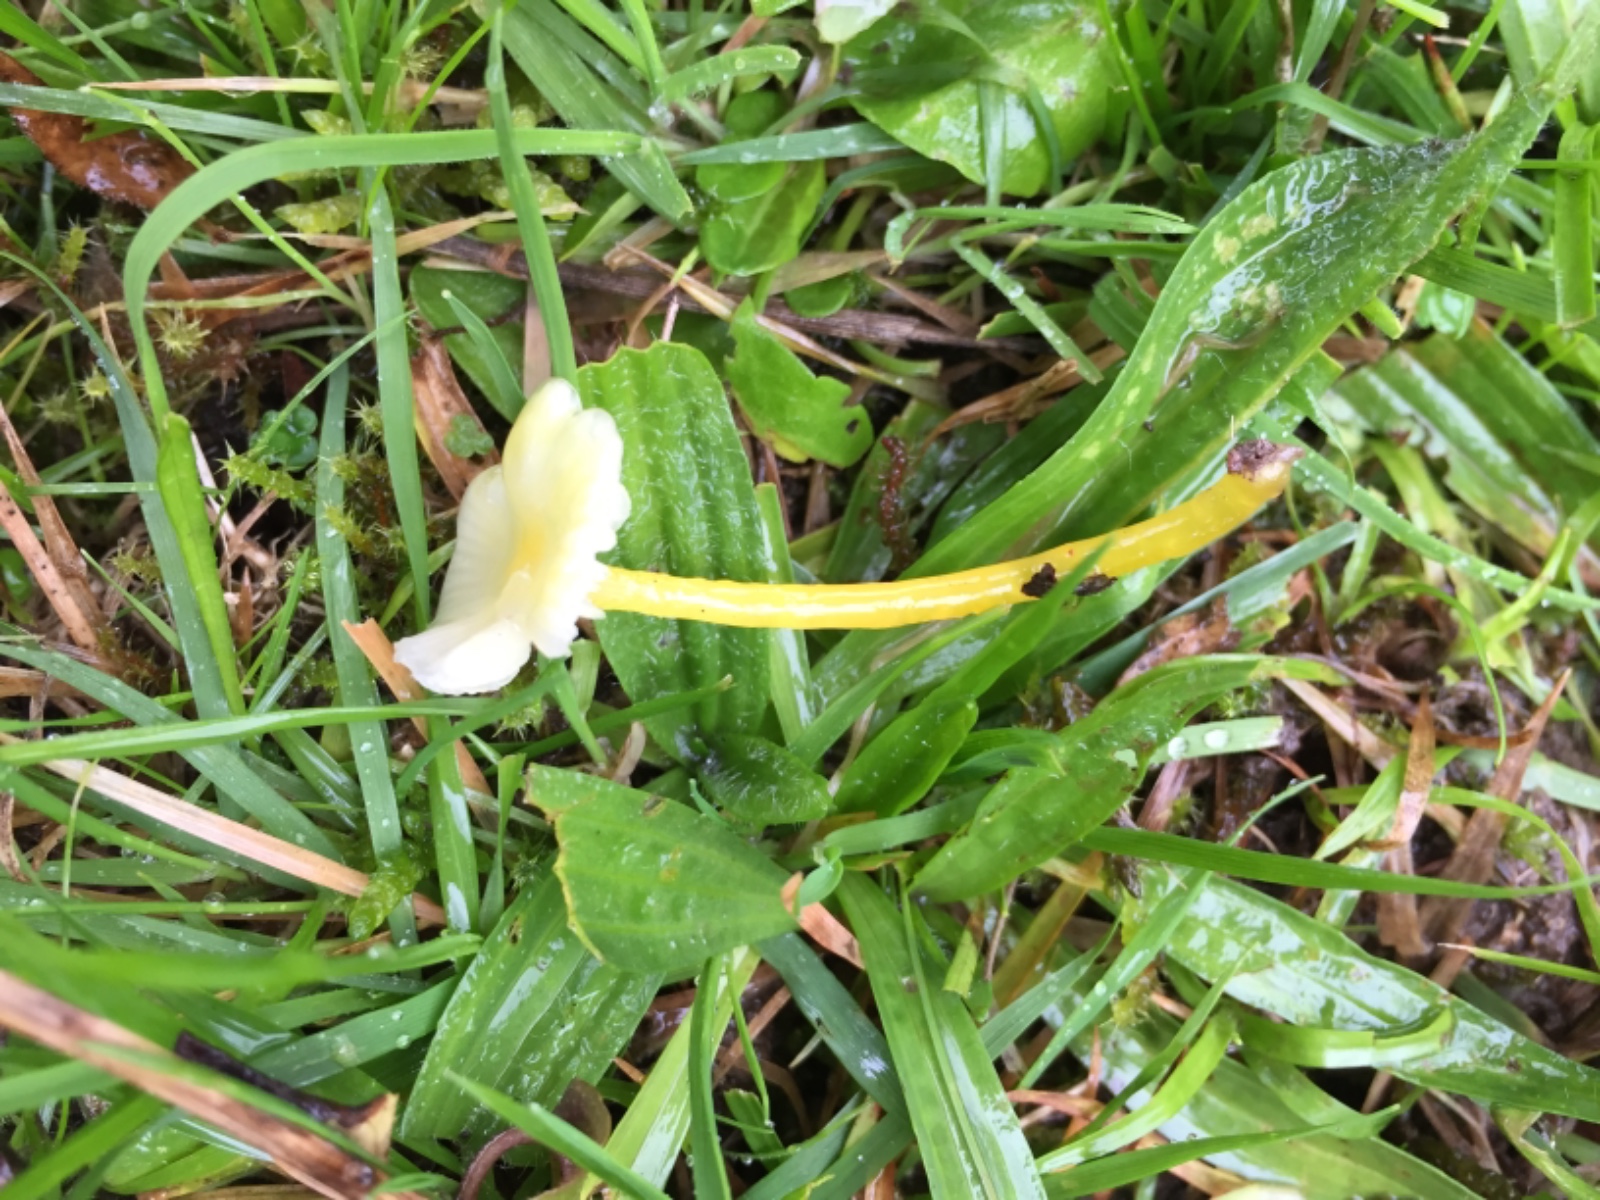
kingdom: Fungi
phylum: Basidiomycota
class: Agaricomycetes
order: Agaricales
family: Hygrophoraceae
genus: Hygrocybe
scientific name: Hygrocybe glutinipes
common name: slimstokket vokshat
